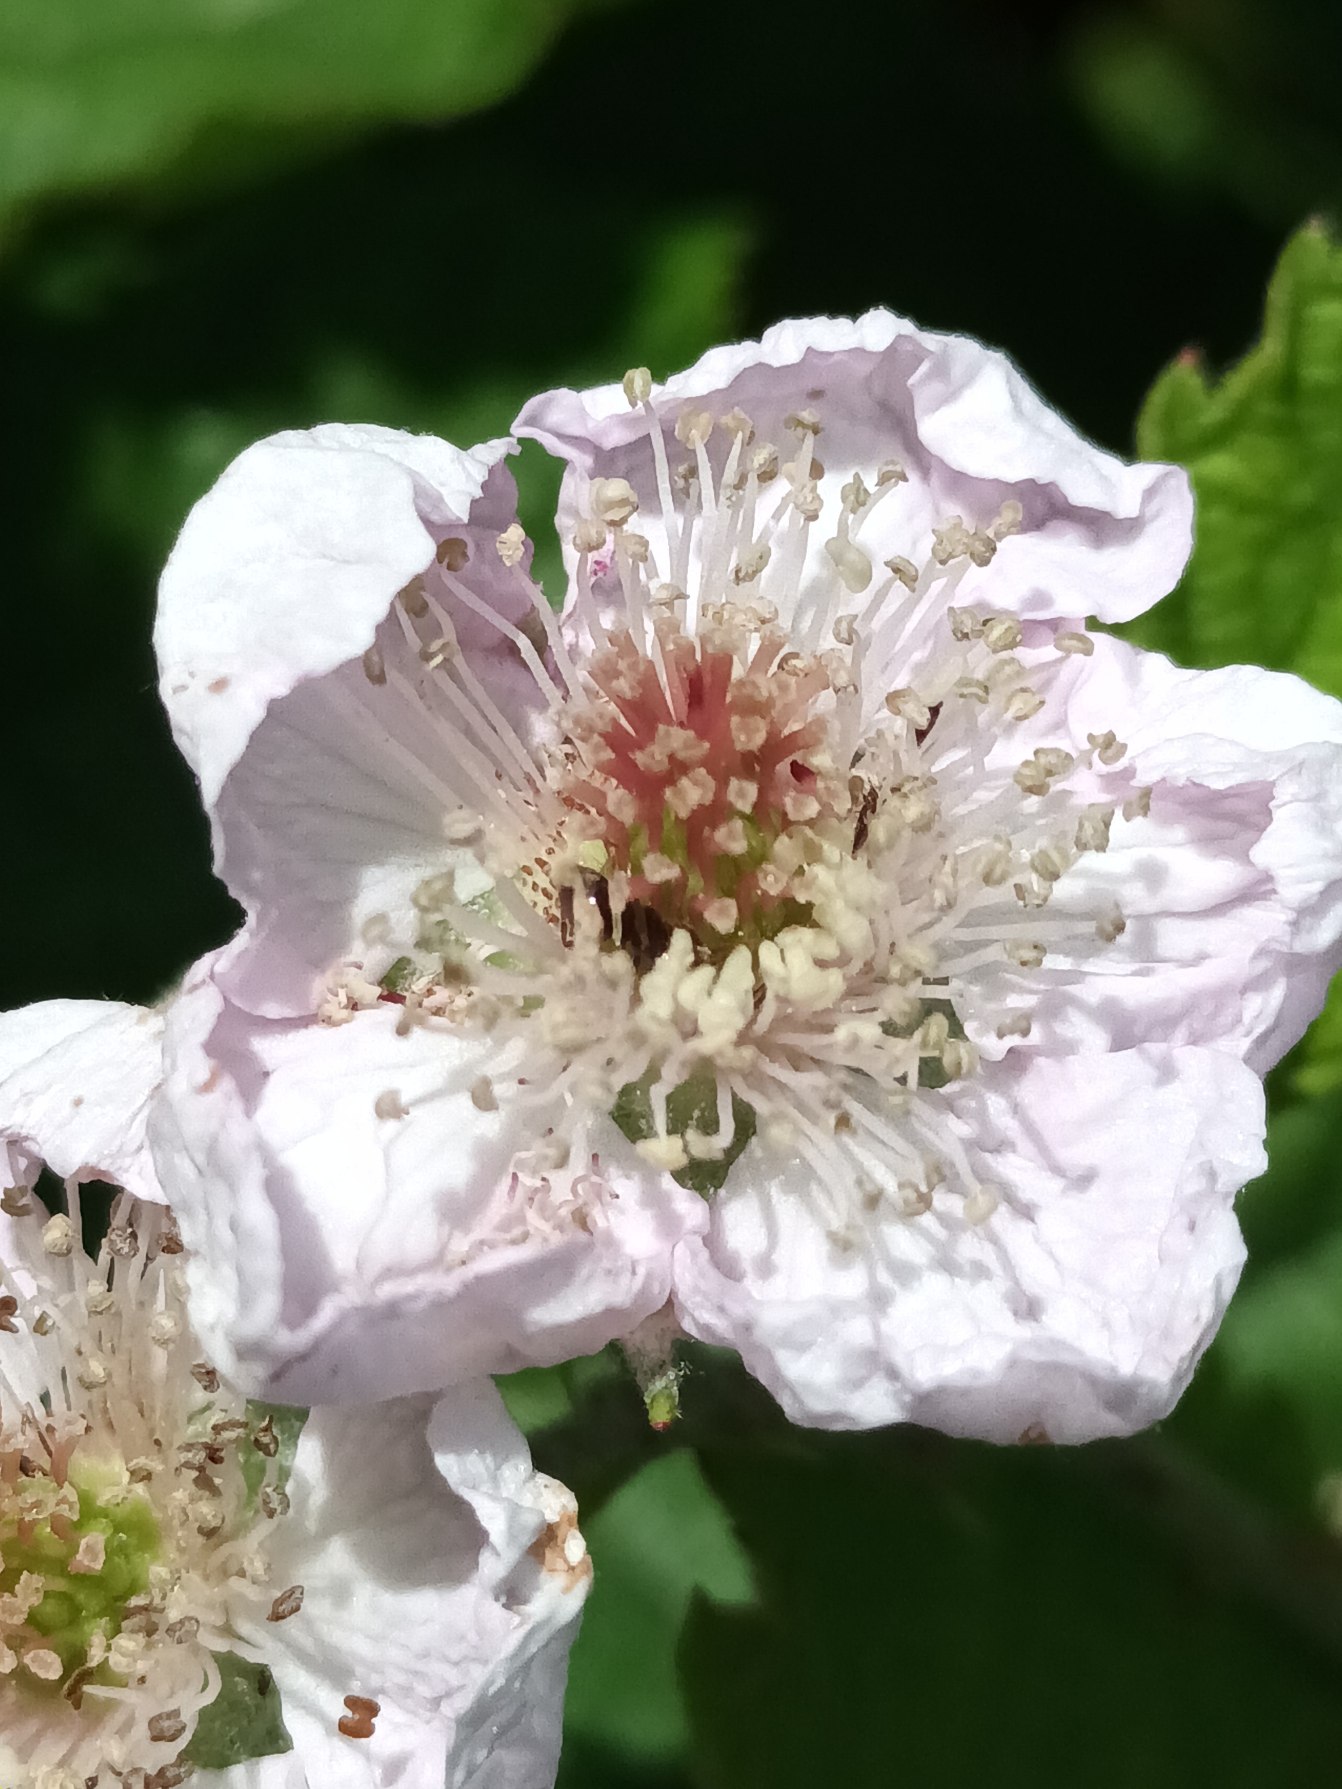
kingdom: Plantae
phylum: Tracheophyta
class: Magnoliopsida
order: Rosales
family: Rosaceae
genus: Rubus
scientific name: Rubus raunkiaeri
